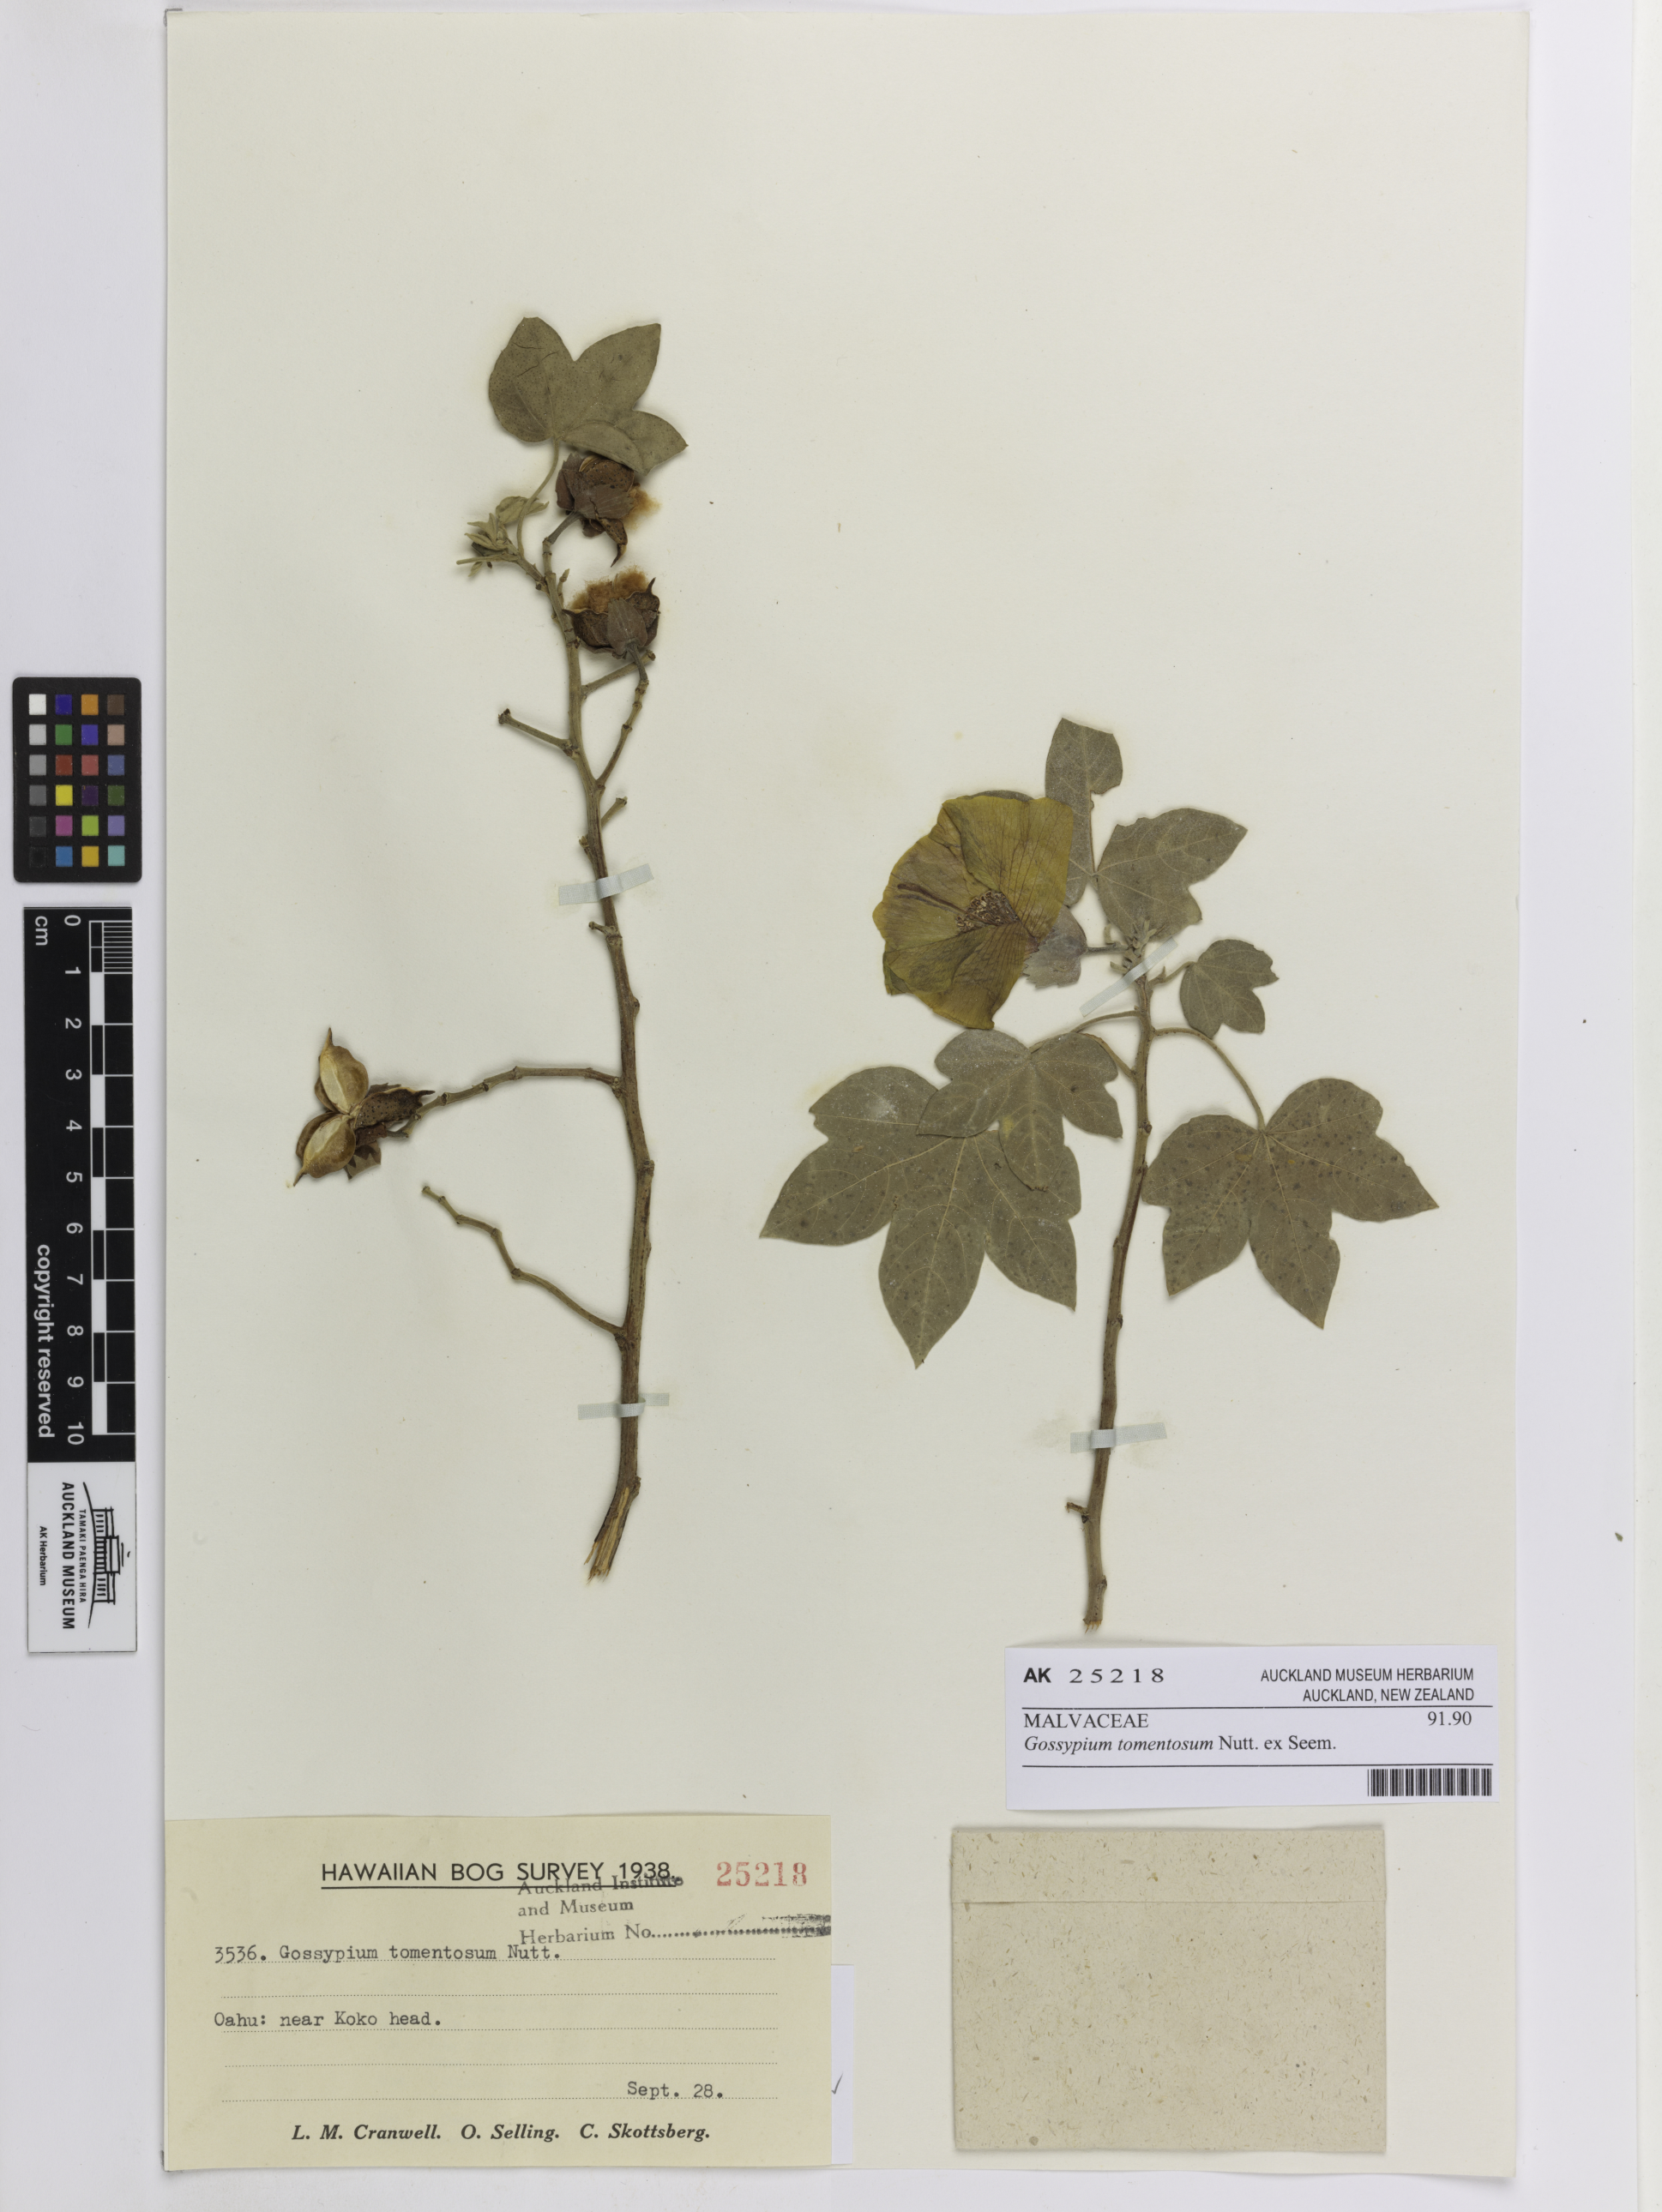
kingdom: Plantae
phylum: Tracheophyta
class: Magnoliopsida
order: Malvales
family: Malvaceae
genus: Gossypium
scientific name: Gossypium tomentosum
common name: Hawaiian cotton
